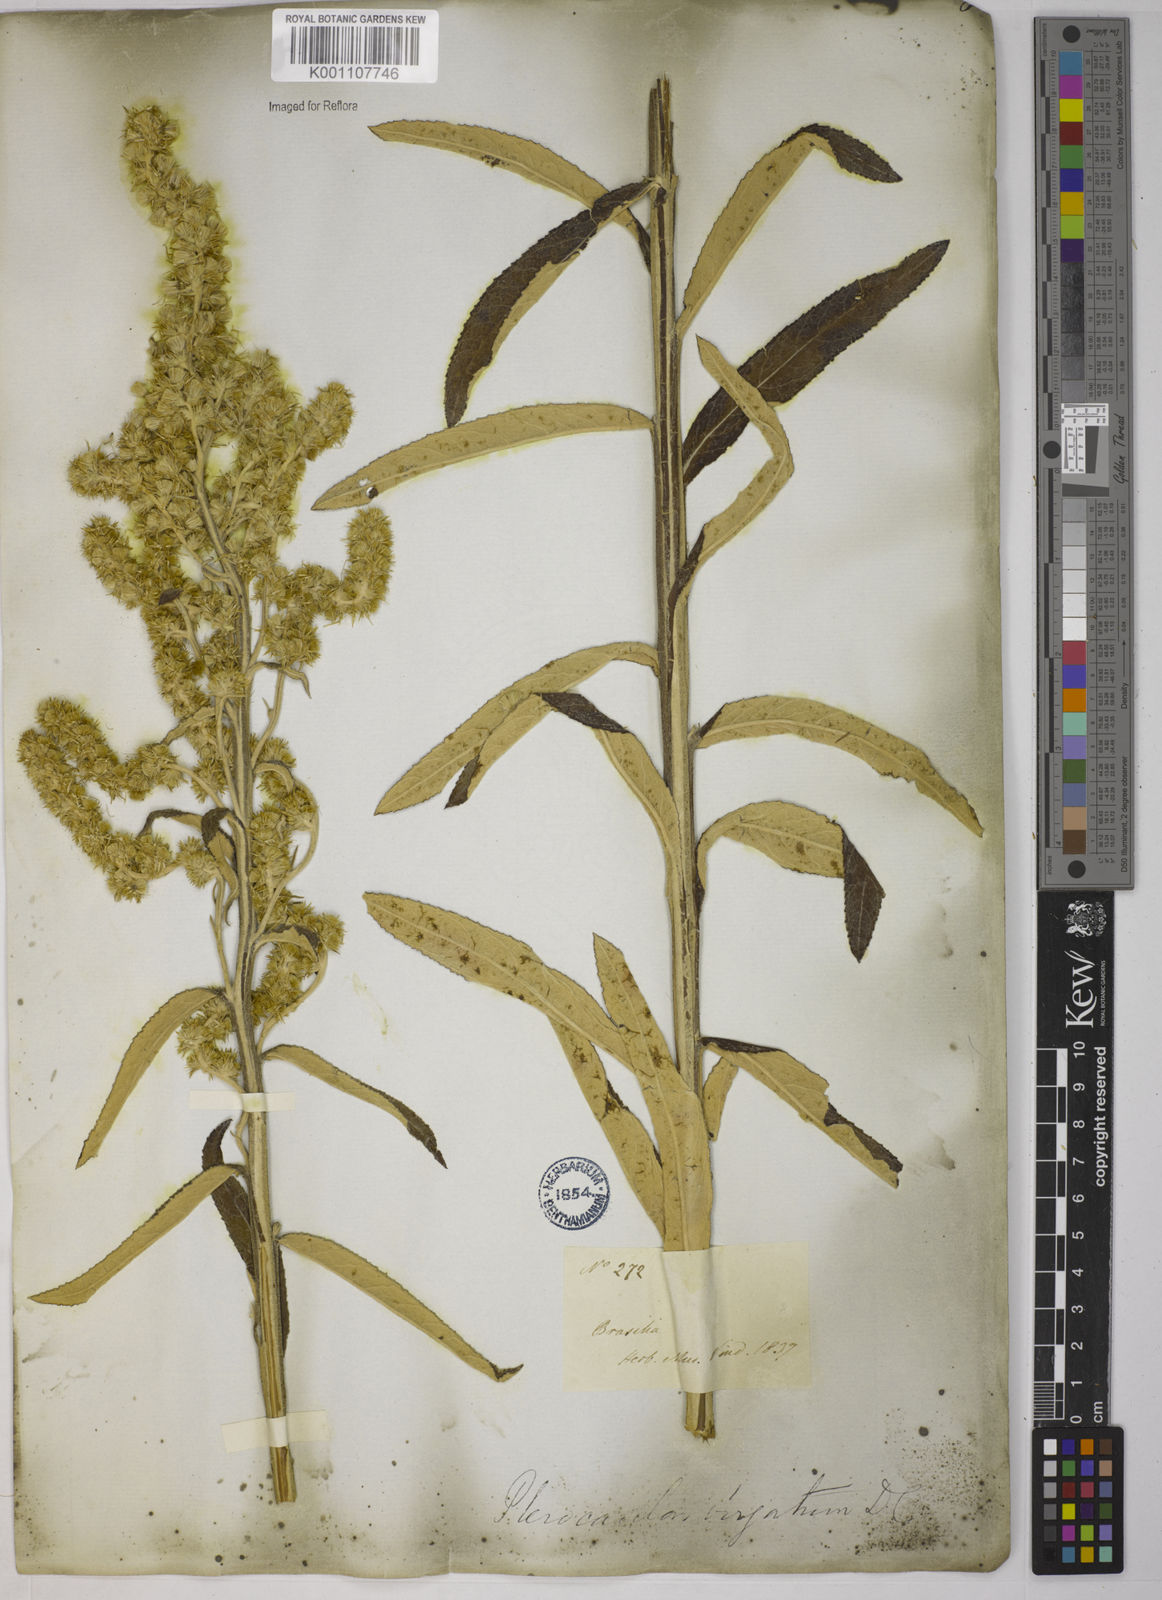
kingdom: Plantae
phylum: Tracheophyta
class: Magnoliopsida
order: Asterales
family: Asteraceae
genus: Pterocaulon
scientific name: Pterocaulon alopecuroides
